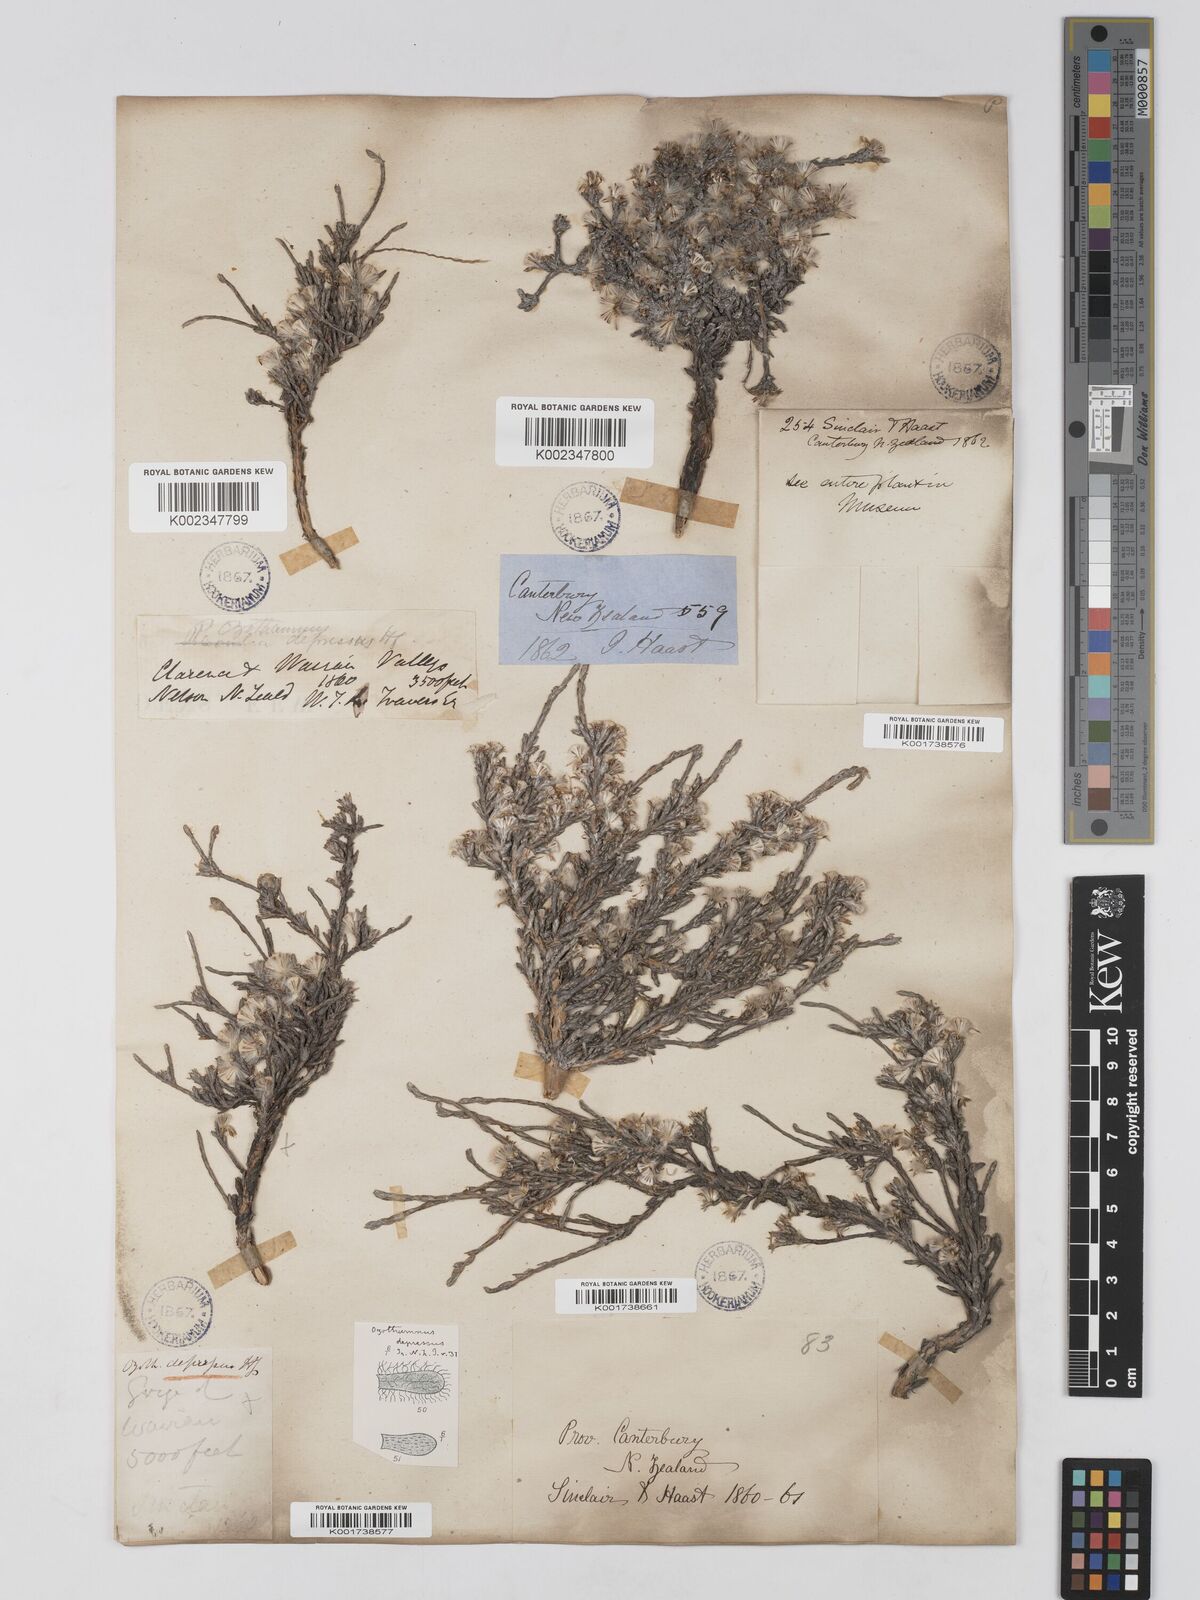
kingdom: Plantae
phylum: Tracheophyta
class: Magnoliopsida
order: Asterales
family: Asteraceae
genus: Ozothamnus
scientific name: Ozothamnus depressus
